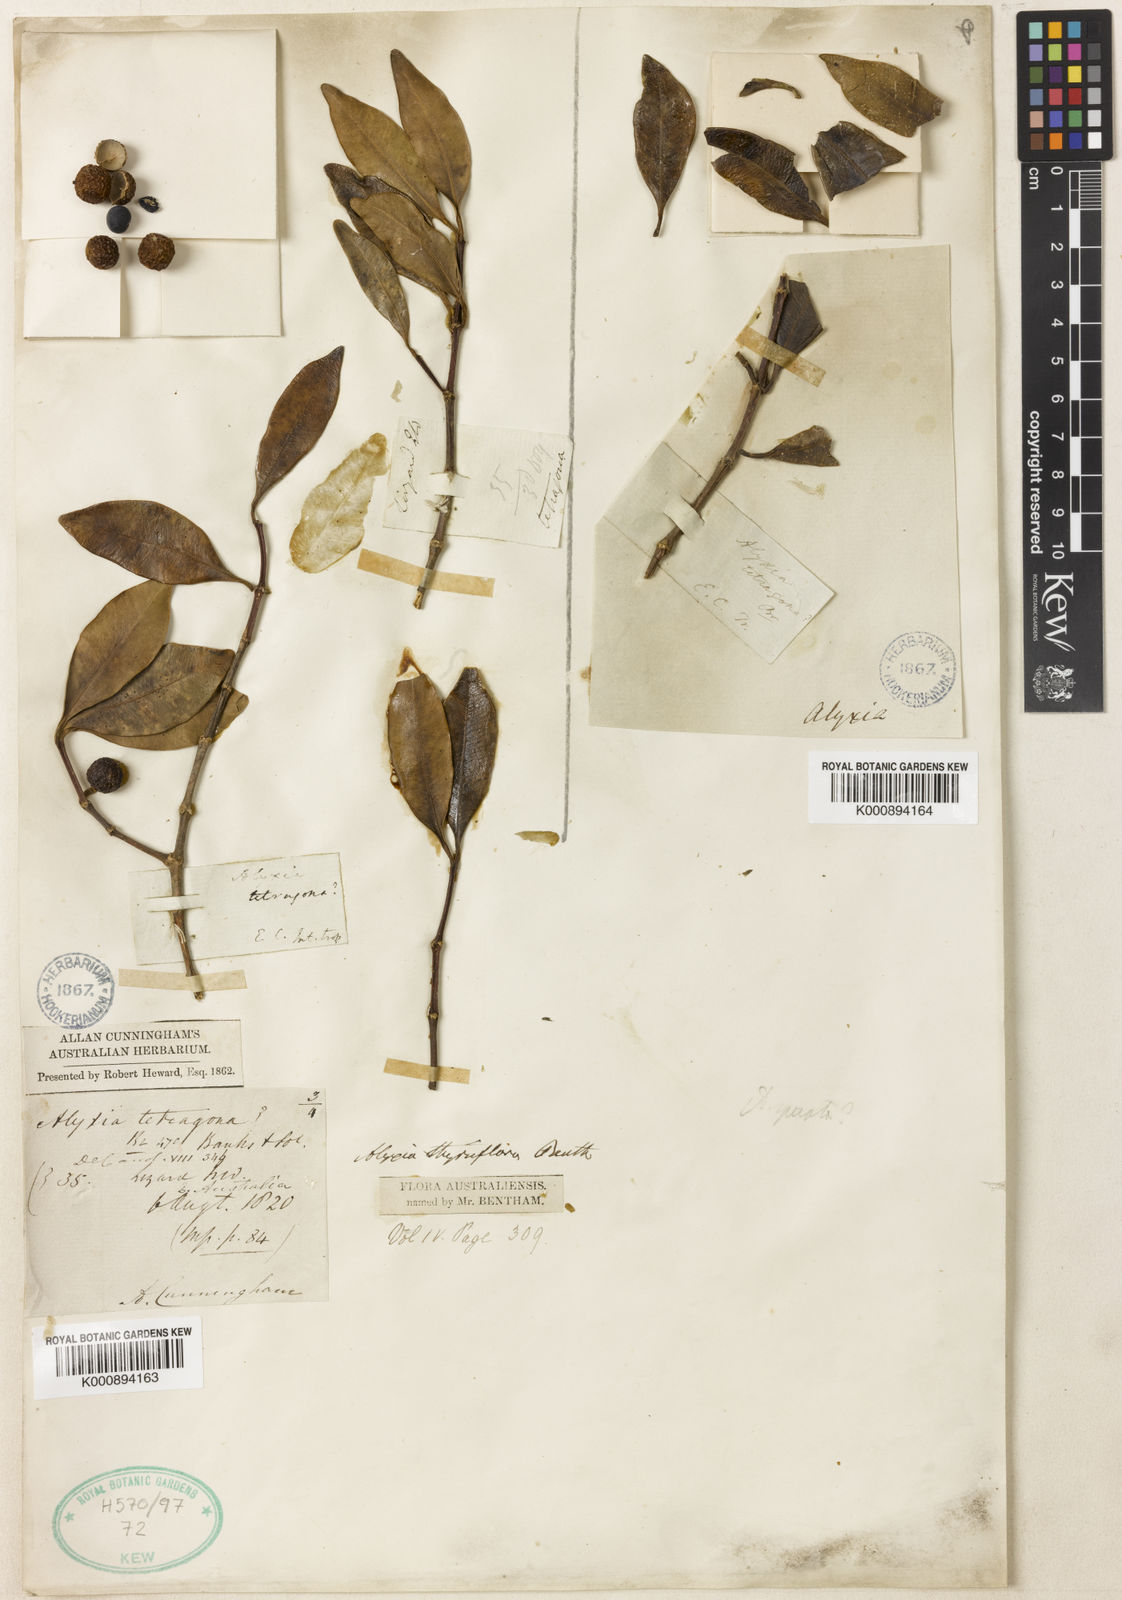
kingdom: Plantae
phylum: Tracheophyta
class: Magnoliopsida
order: Gentianales
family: Apocynaceae
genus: Alyxia
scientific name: Alyxia spicata
